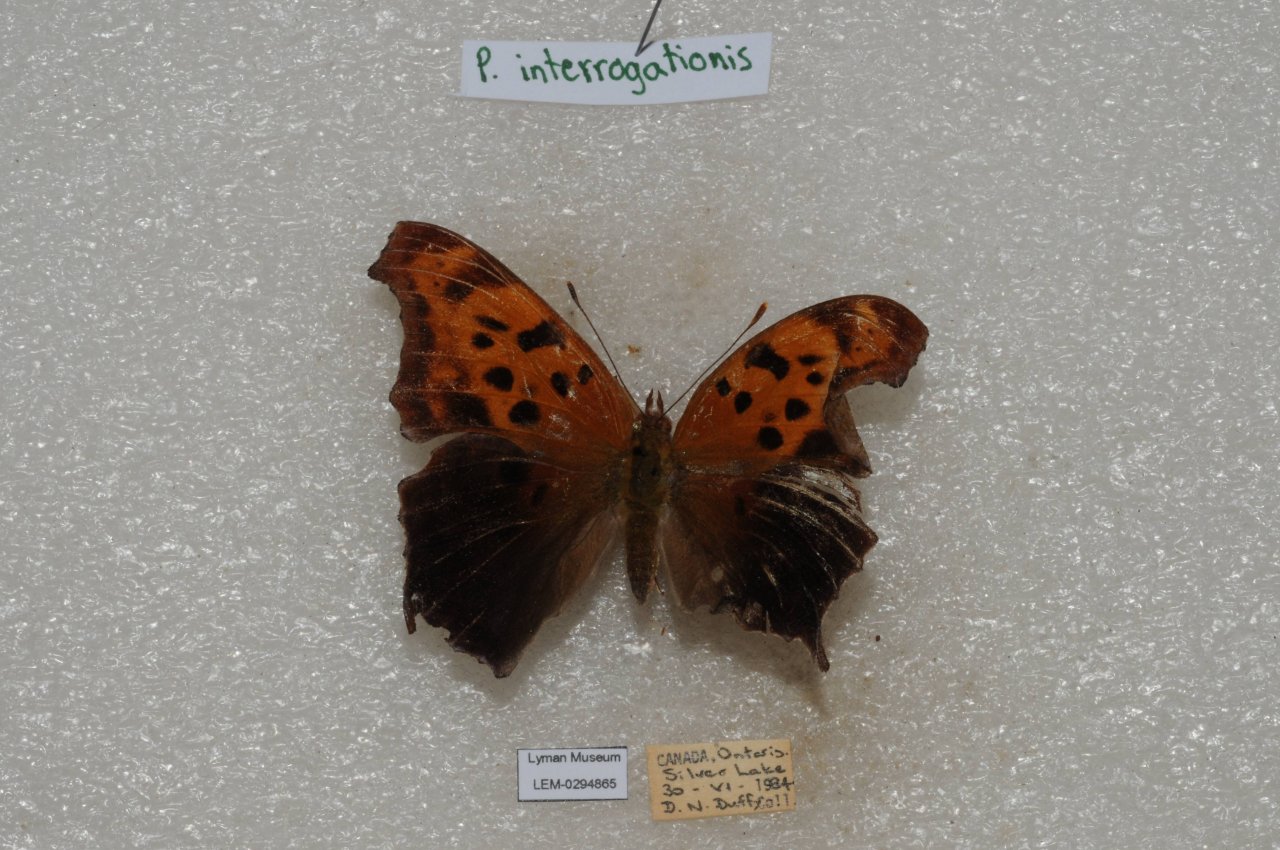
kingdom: Animalia
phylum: Arthropoda
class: Insecta
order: Lepidoptera
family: Nymphalidae
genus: Polygonia
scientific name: Polygonia interrogationis
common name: Question Mark
